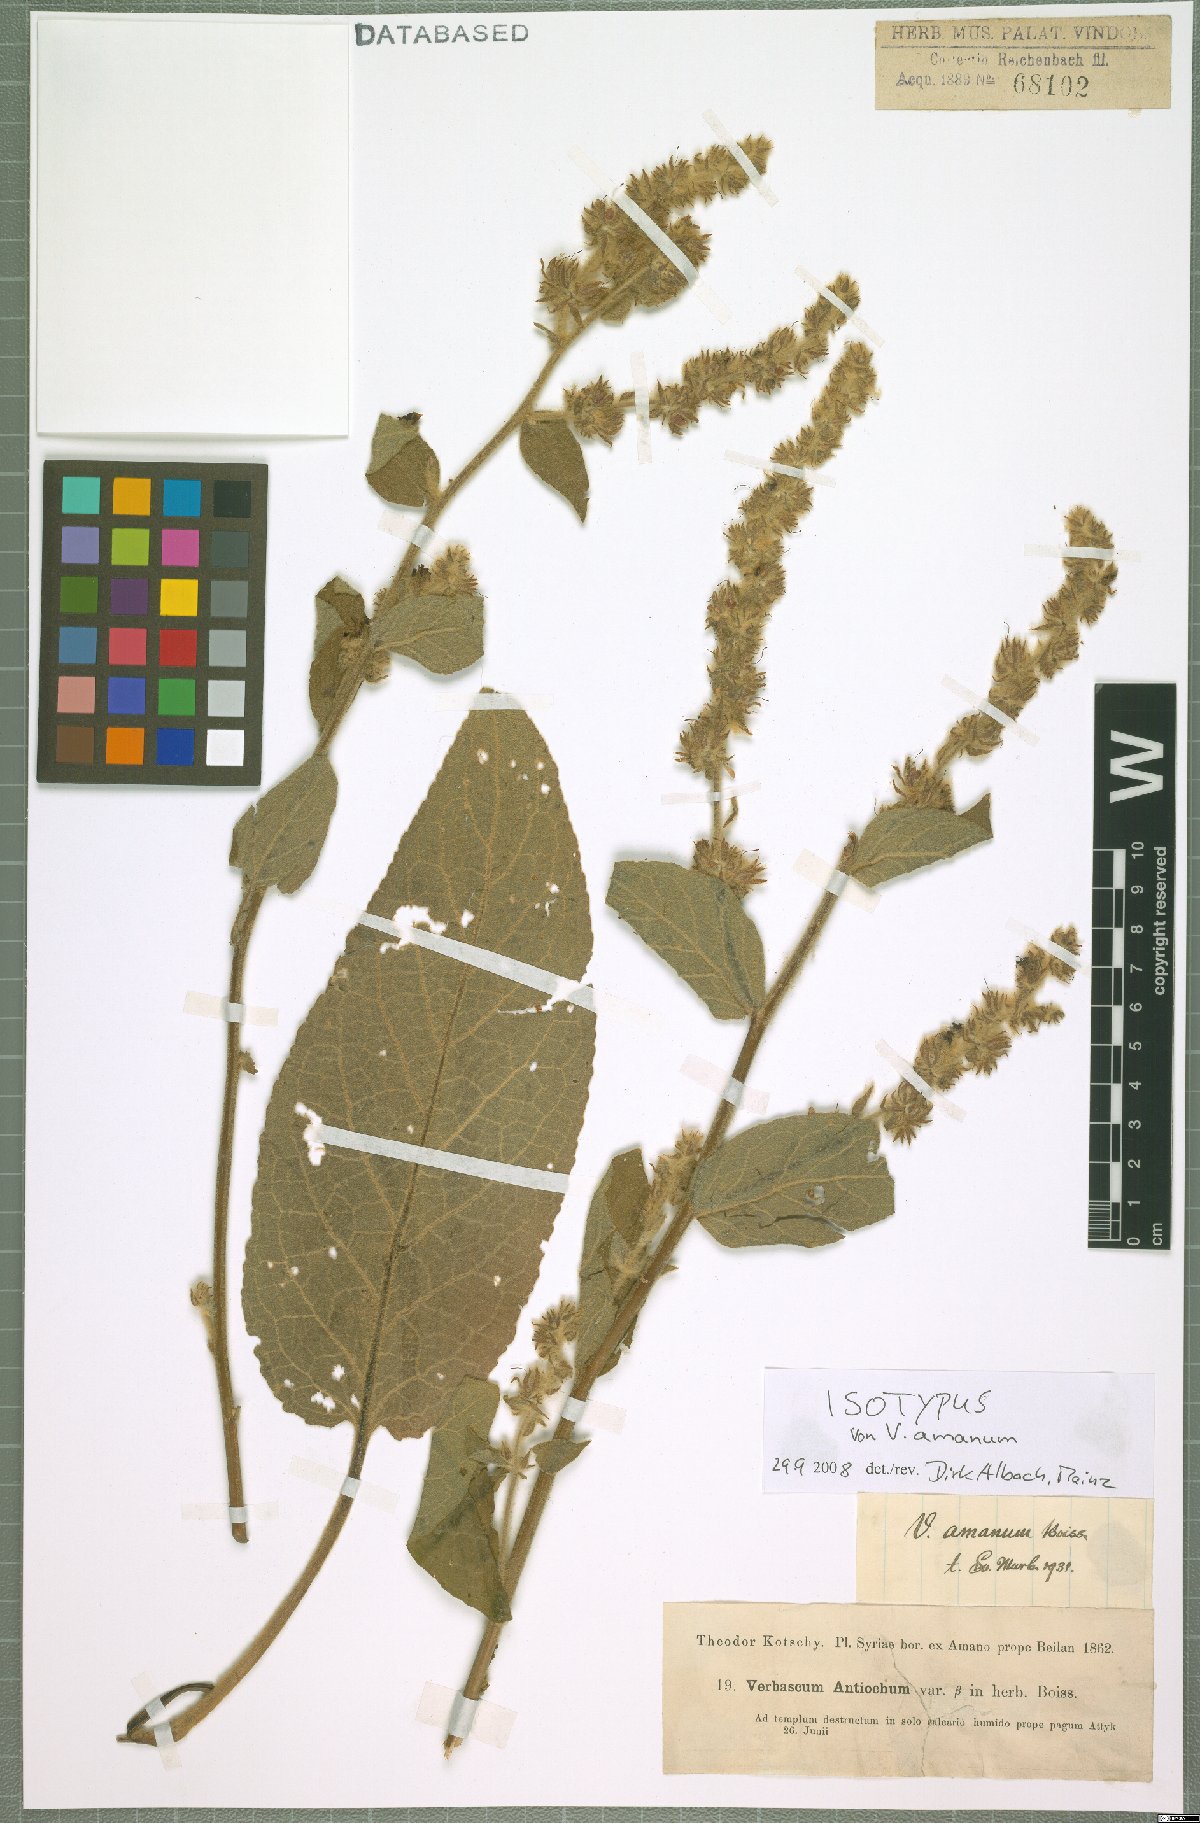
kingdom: Plantae
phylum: Tracheophyta
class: Magnoliopsida
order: Lamiales
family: Scrophulariaceae
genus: Verbascum
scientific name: Verbascum amanum
